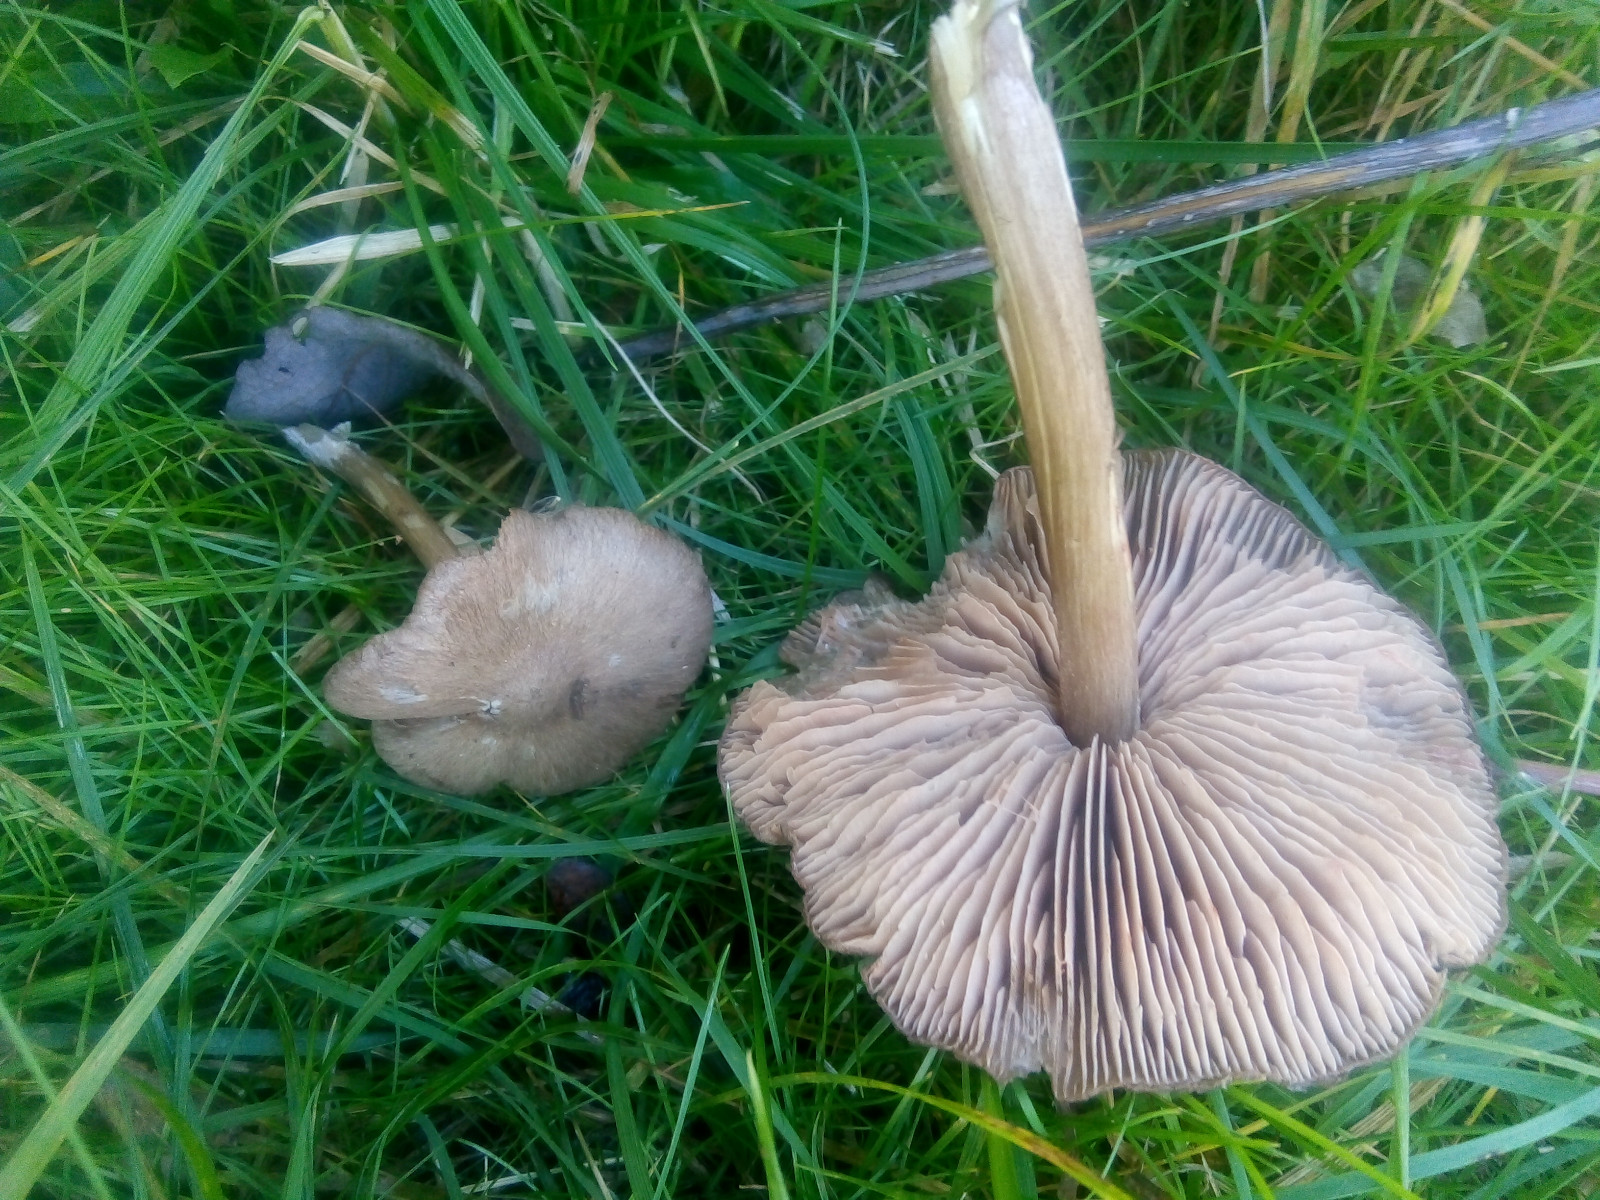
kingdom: Fungi
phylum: Basidiomycota
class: Agaricomycetes
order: Agaricales
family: Entolomataceae
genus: Entoloma
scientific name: Entoloma porphyrophaeum
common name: porfyrbrun rødblad
